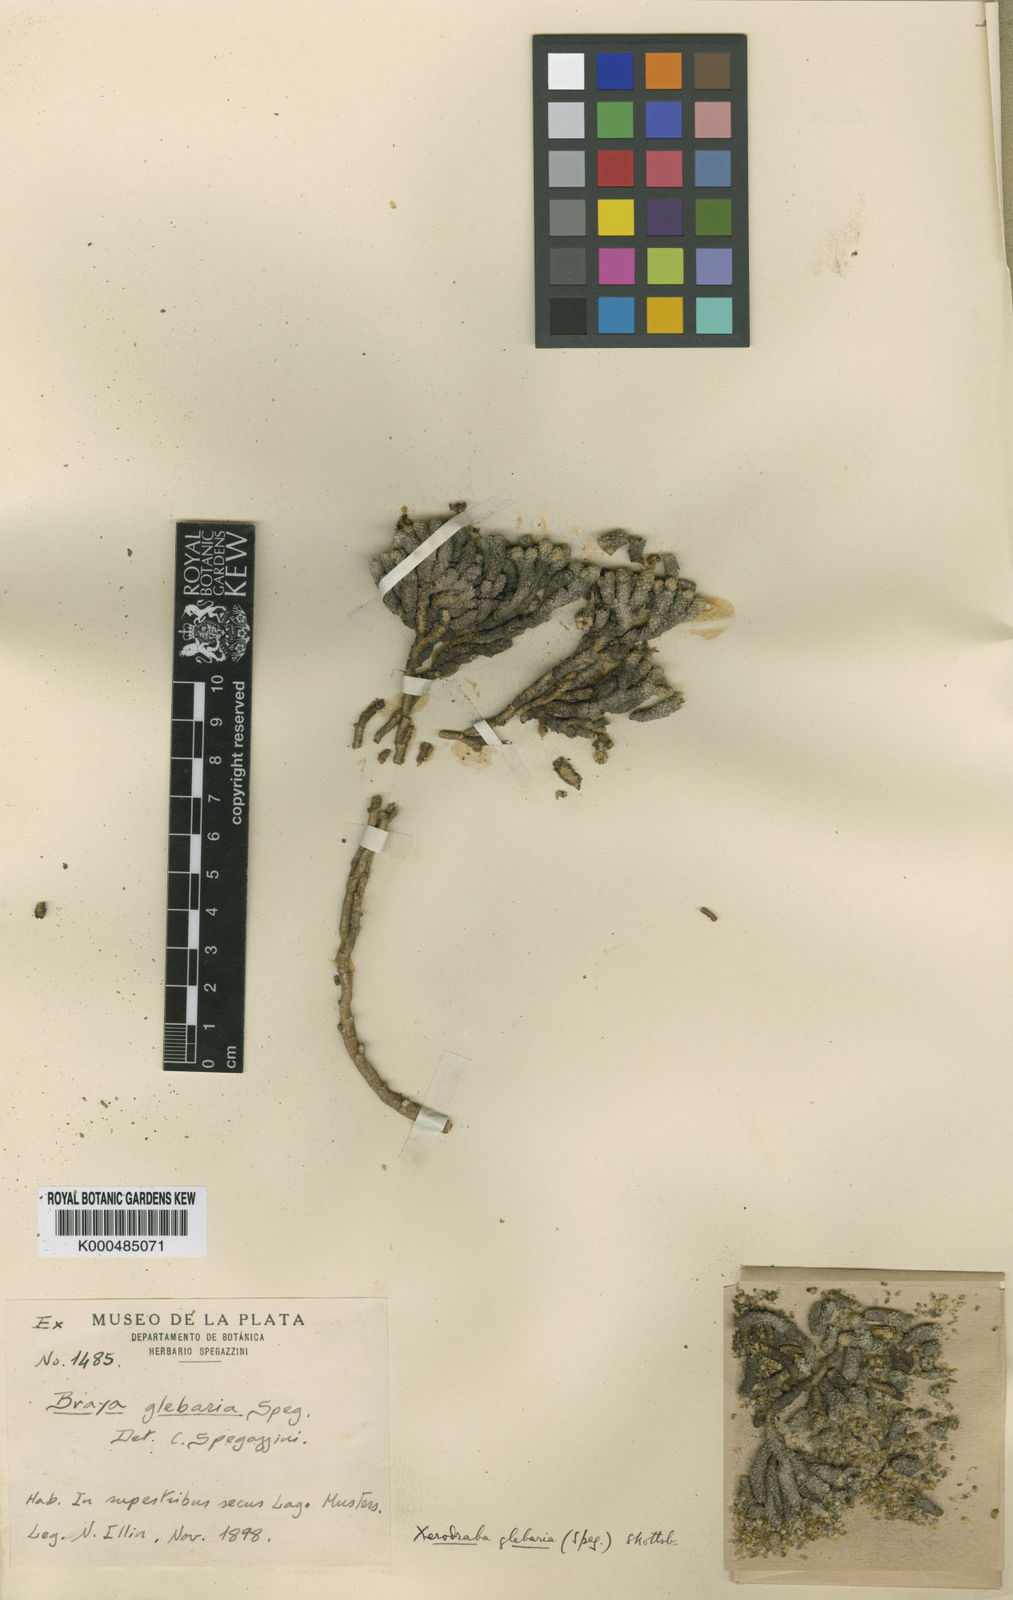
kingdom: Plantae
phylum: Tracheophyta
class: Magnoliopsida
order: Brassicales
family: Brassicaceae
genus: Xerodraba
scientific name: Xerodraba glebaria
